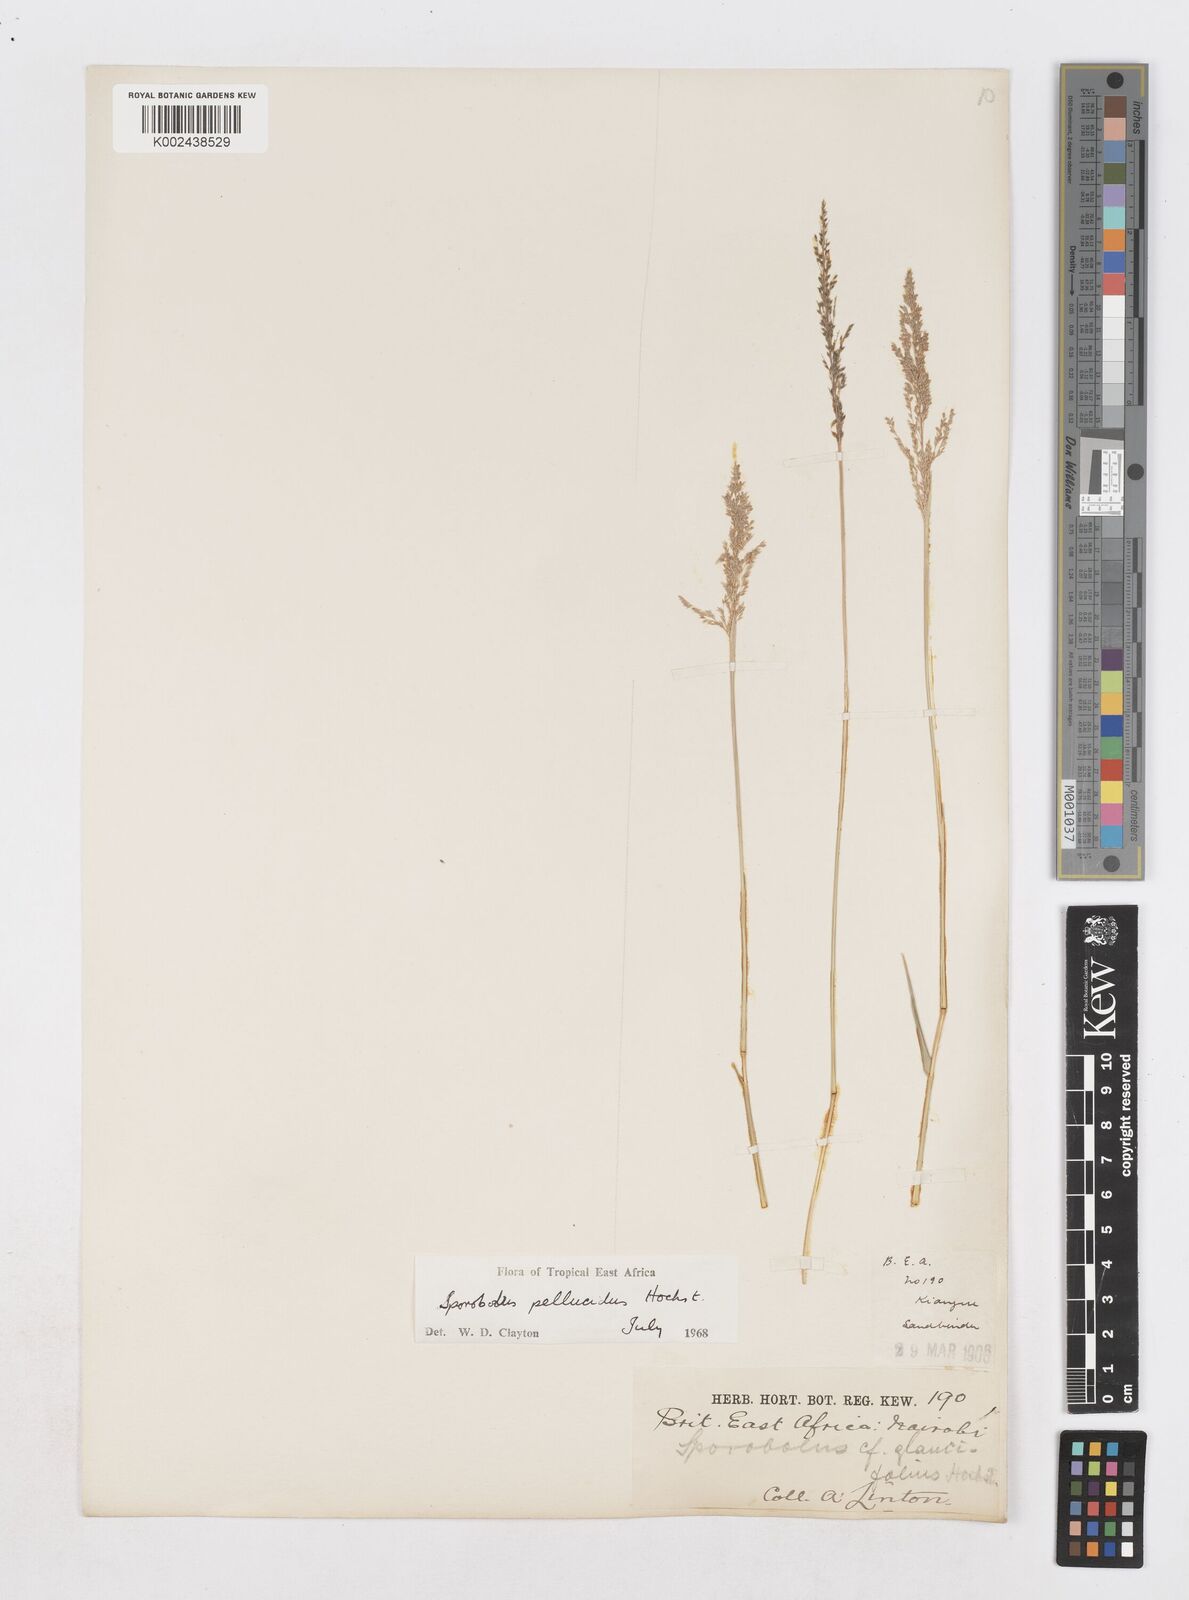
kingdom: Plantae
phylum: Tracheophyta
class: Liliopsida
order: Poales
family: Poaceae
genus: Sporobolus
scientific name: Sporobolus pellucidus
